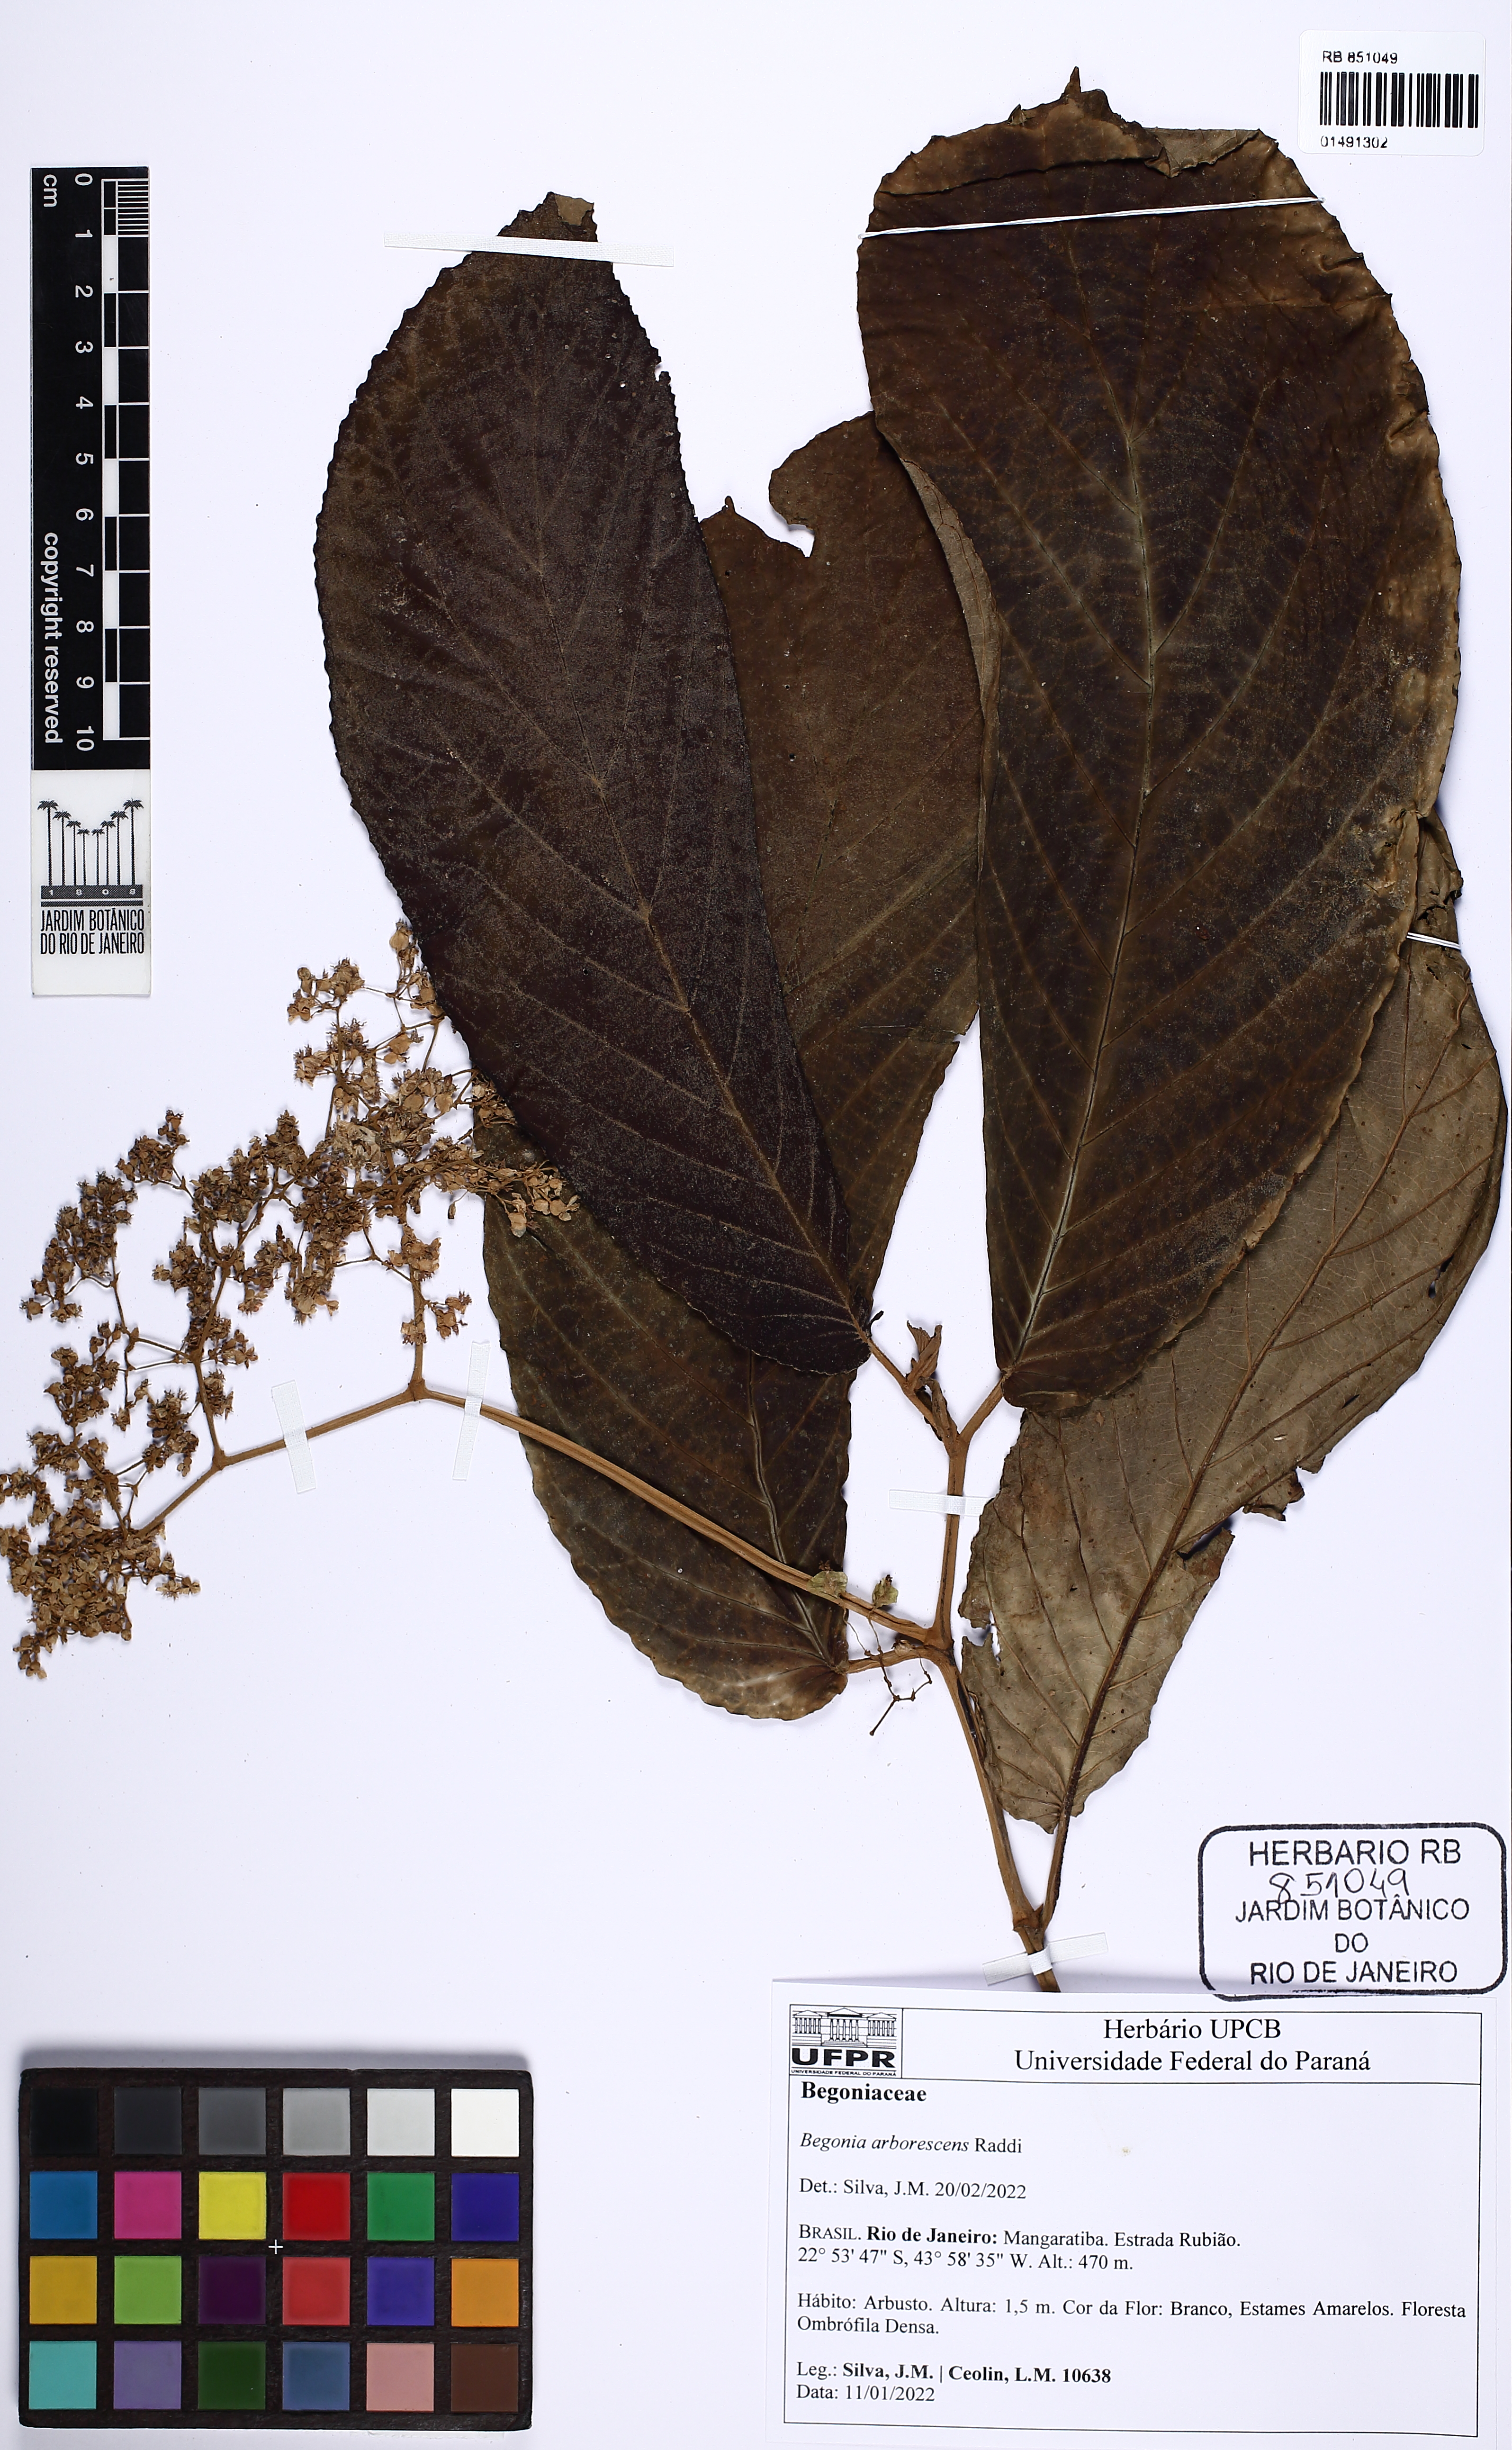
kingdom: Plantae
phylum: Tracheophyta
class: Magnoliopsida
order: Cucurbitales
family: Begoniaceae
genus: Begonia
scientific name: Begonia arborescens
